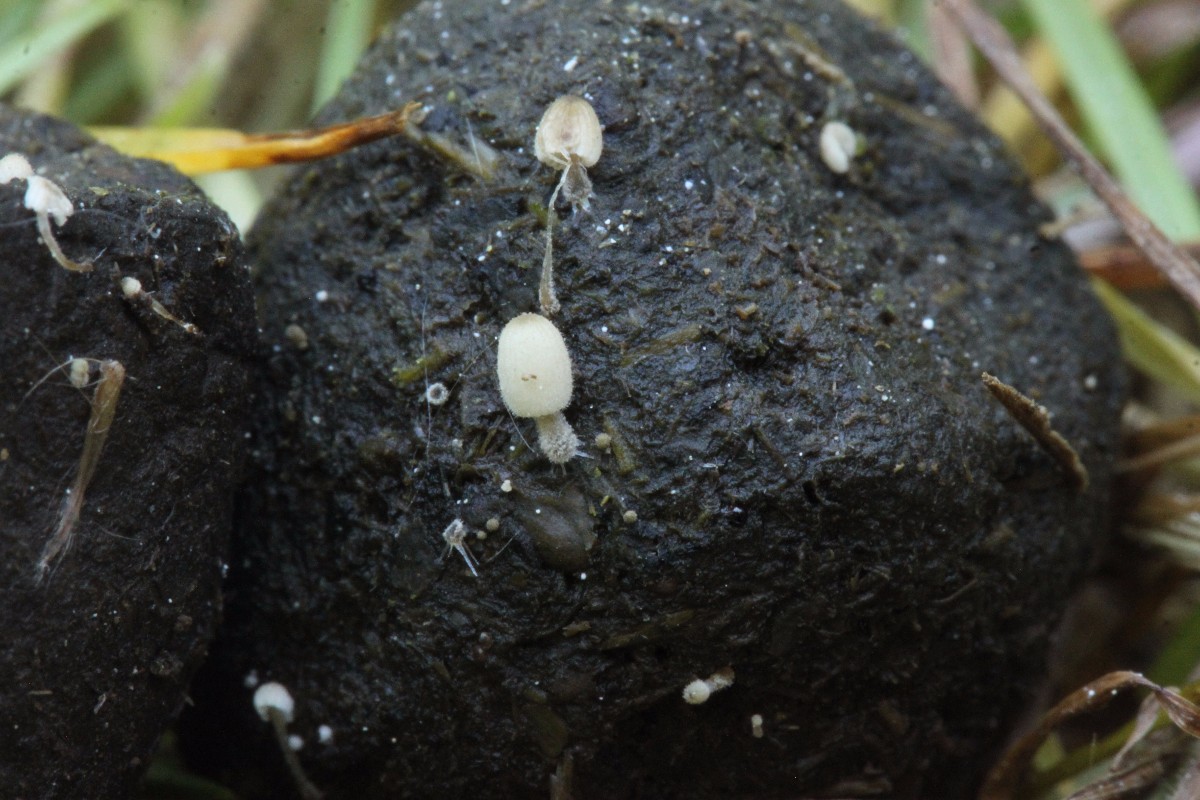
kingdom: Fungi
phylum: Basidiomycota
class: Agaricomycetes
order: Agaricales
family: Psathyrellaceae
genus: Coprinellus
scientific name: Coprinellus pusillulus
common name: lillebitte blækhat
